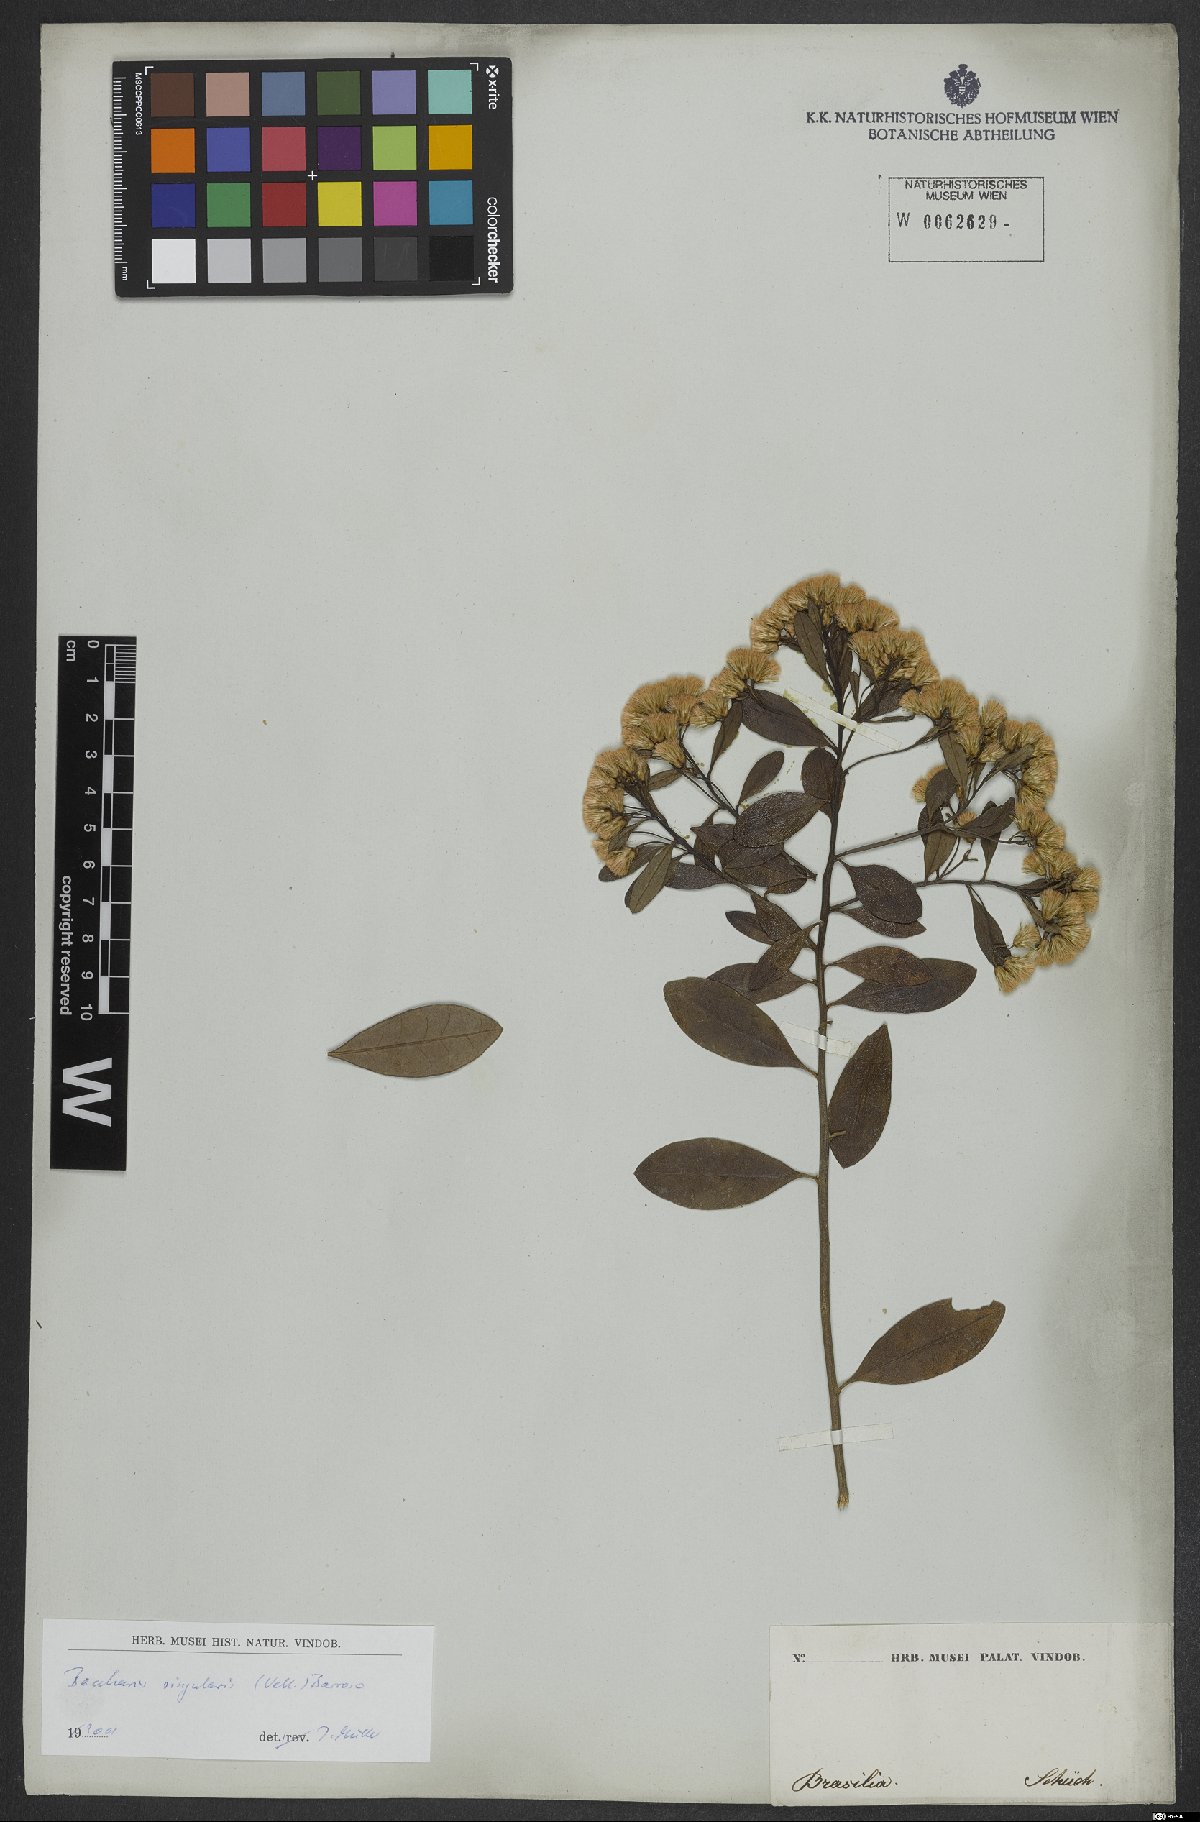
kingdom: Plantae
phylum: Tracheophyta
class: Magnoliopsida
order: Asterales
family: Asteraceae
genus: Baccharis
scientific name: Baccharis singularis
